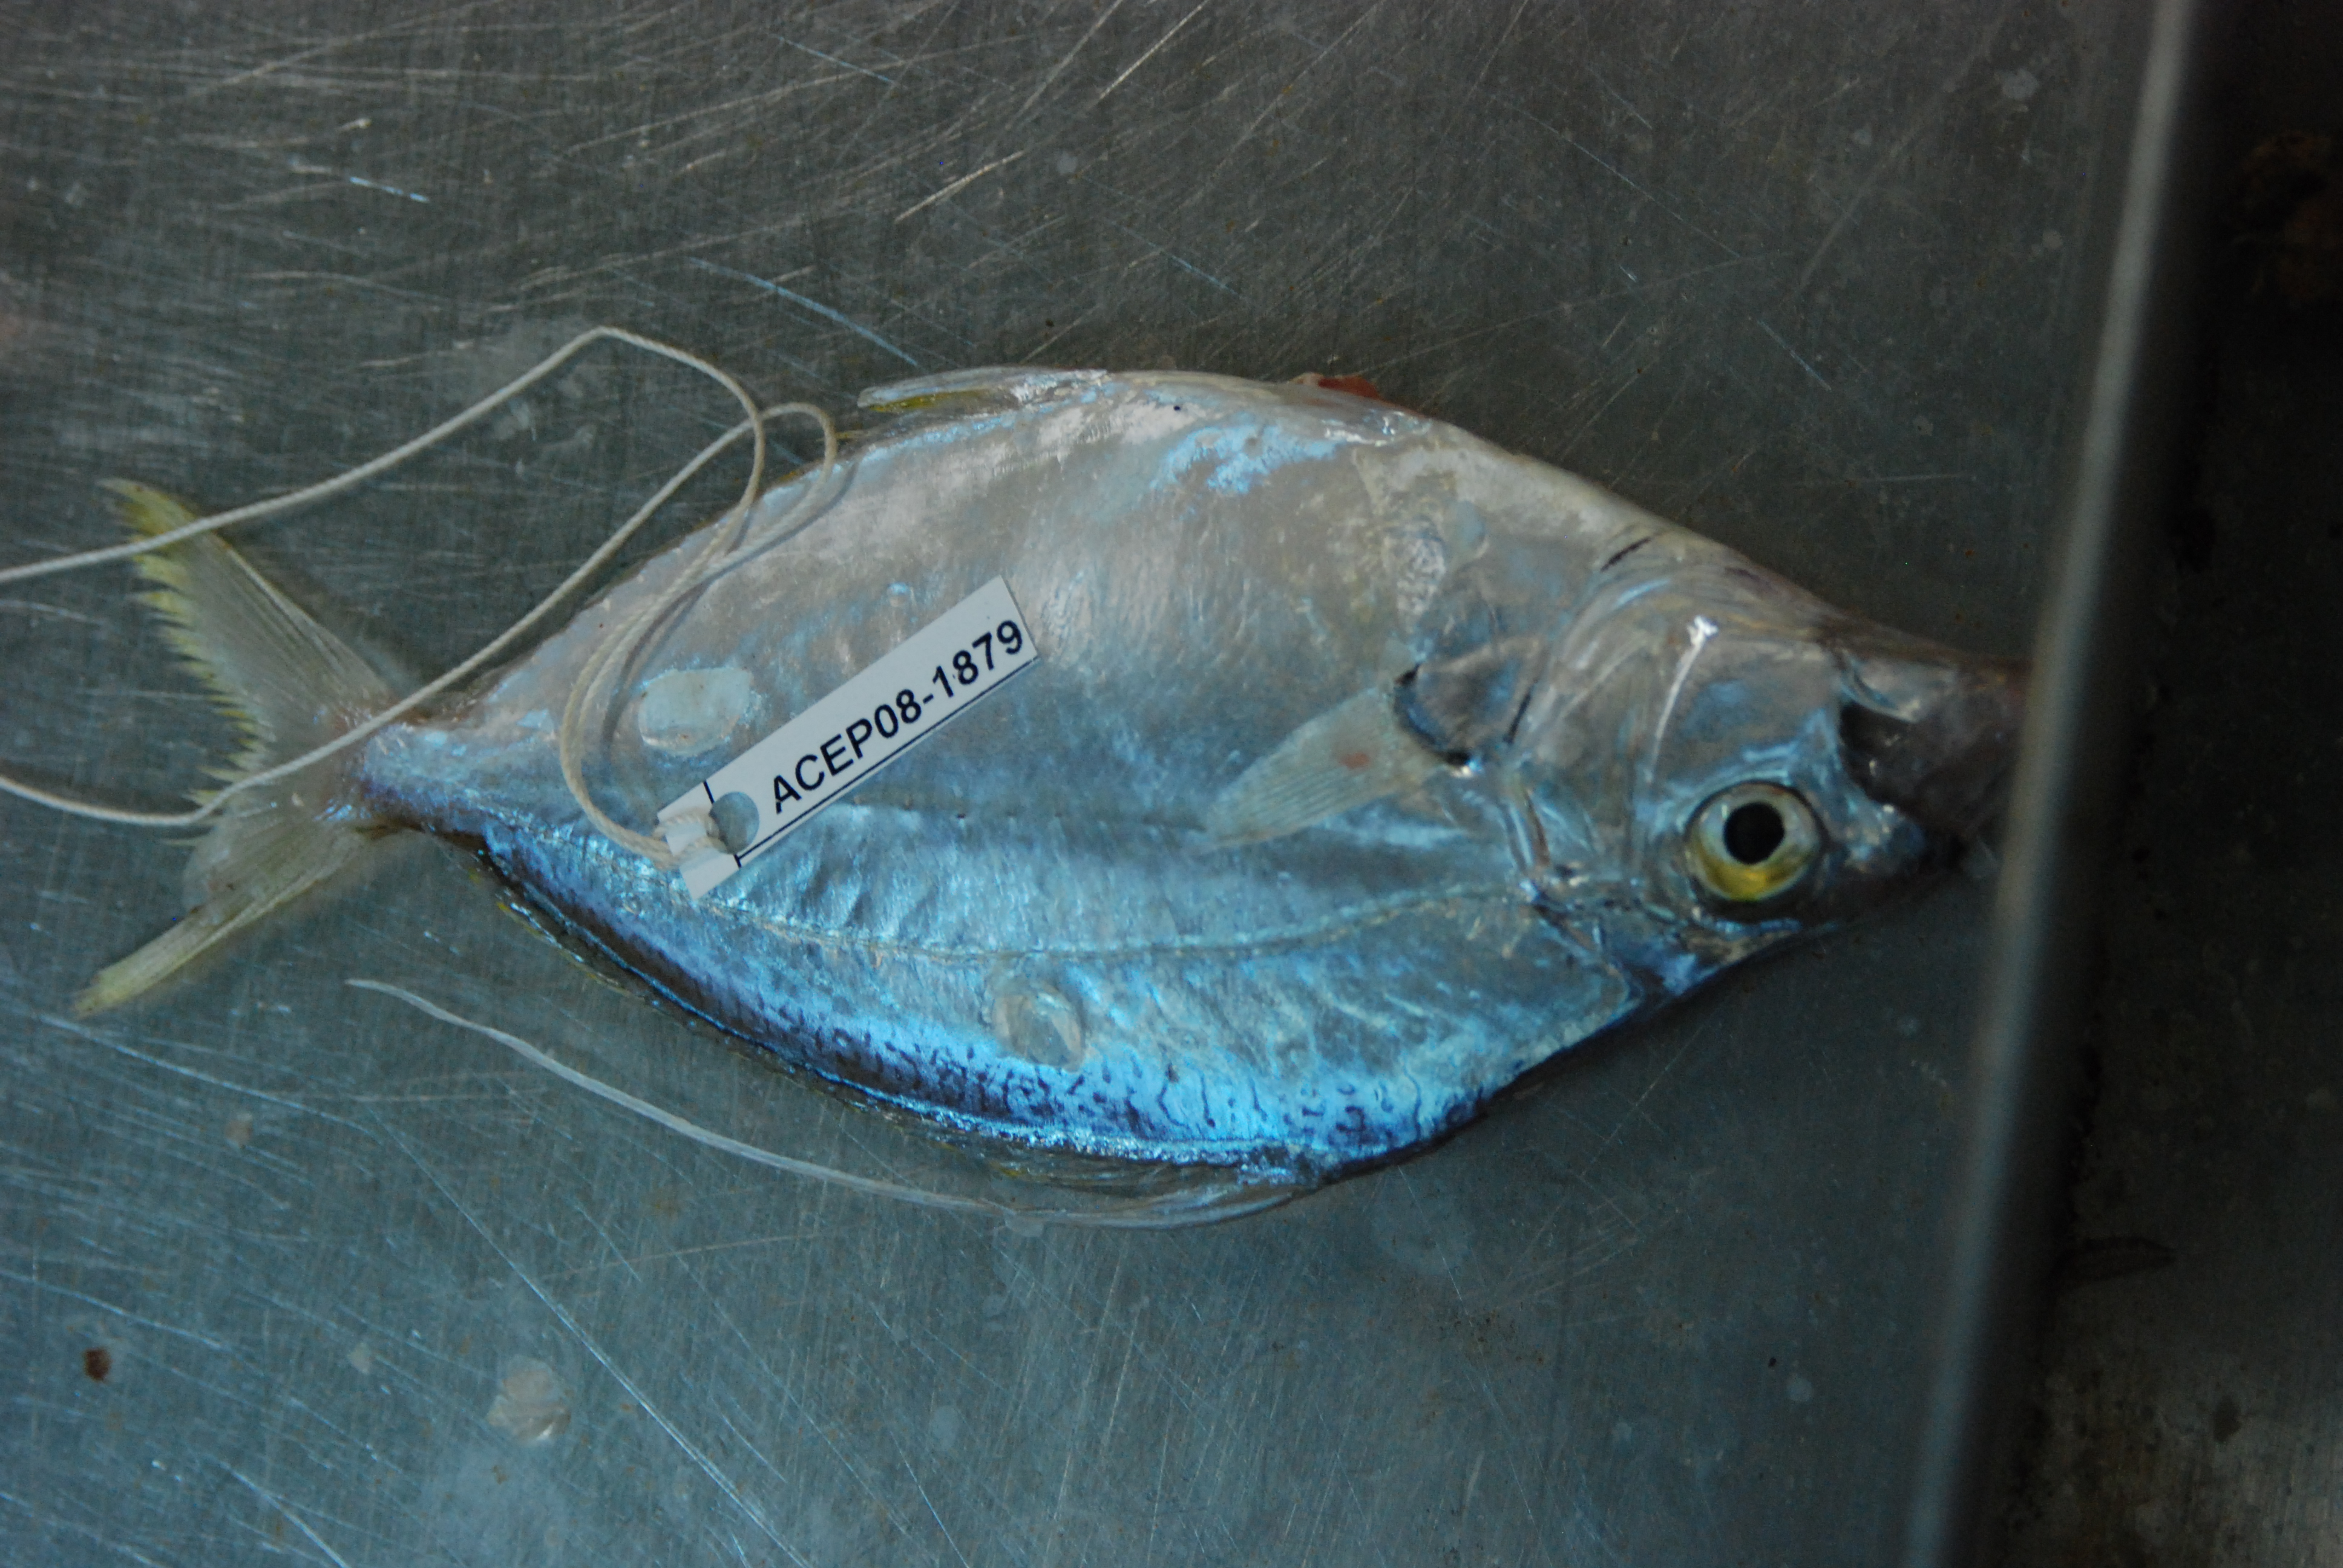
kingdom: Animalia
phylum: Chordata
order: Perciformes
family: Leiognathidae
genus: Leiognathus
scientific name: Leiognathus
